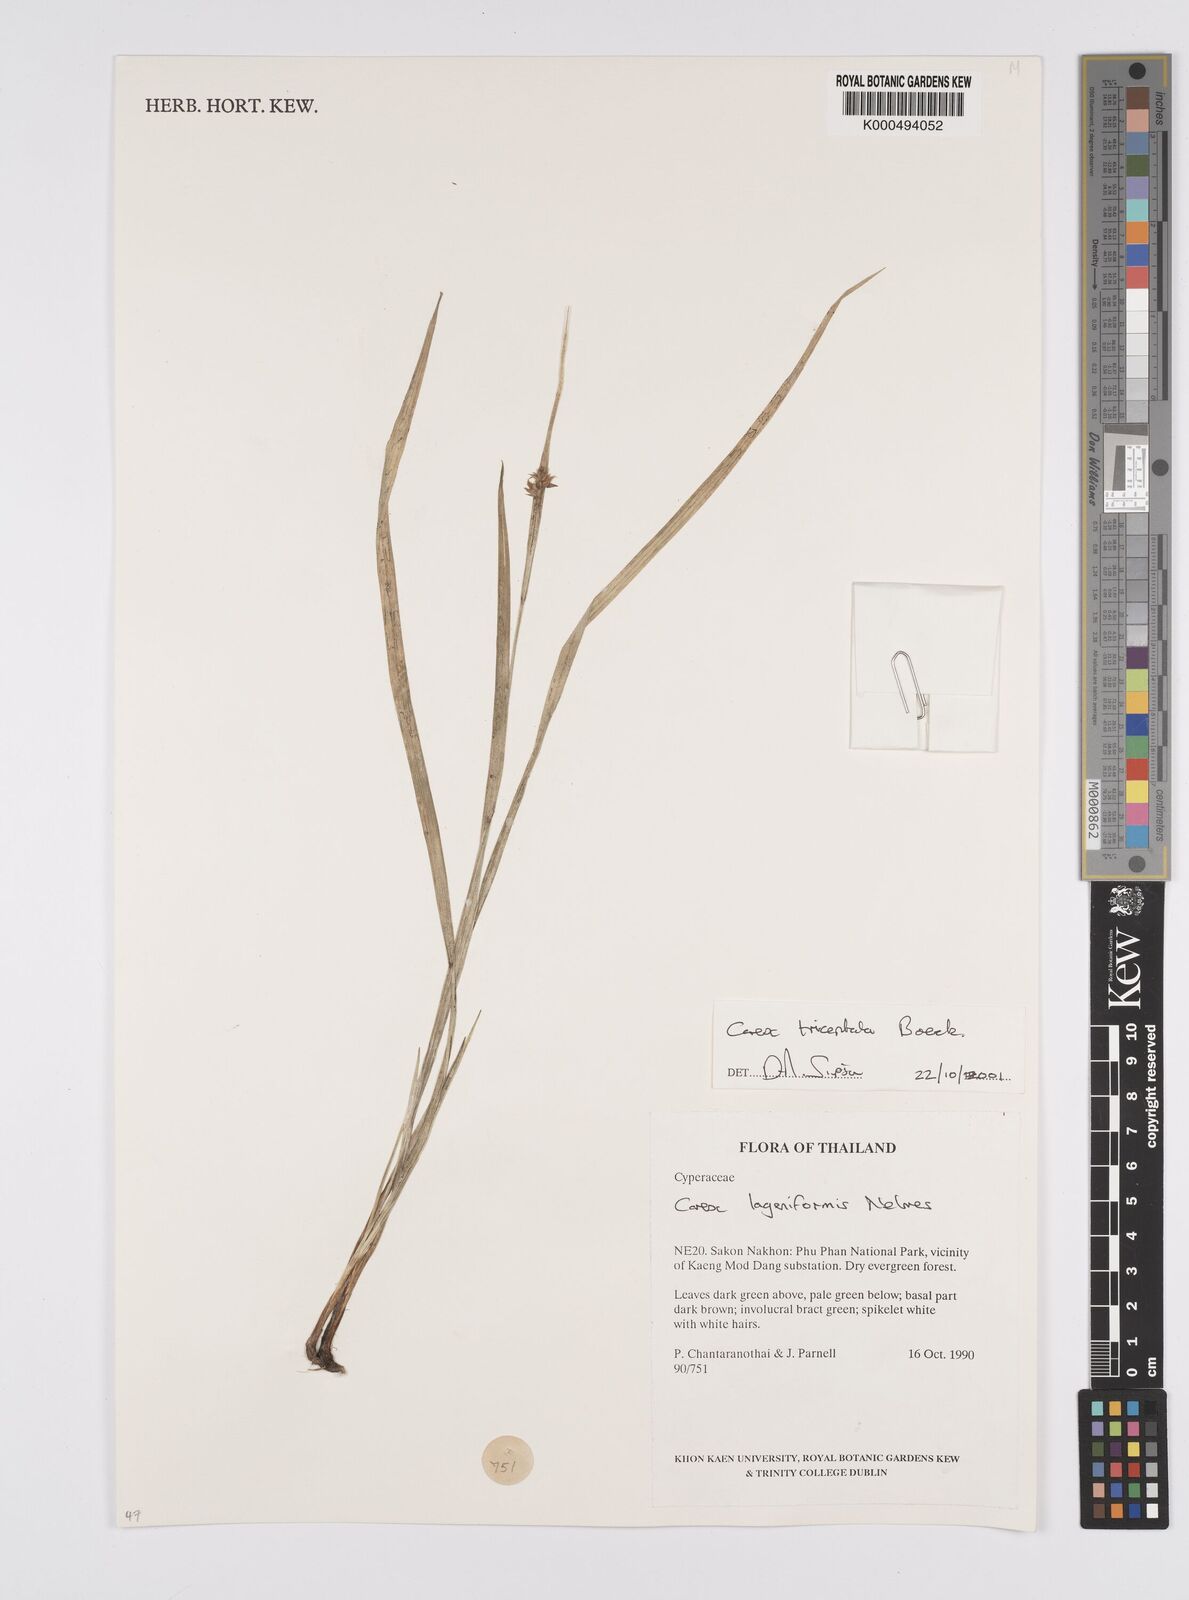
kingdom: Plantae
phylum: Tracheophyta
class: Liliopsida
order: Poales
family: Cyperaceae
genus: Carex
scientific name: Carex tricephala
